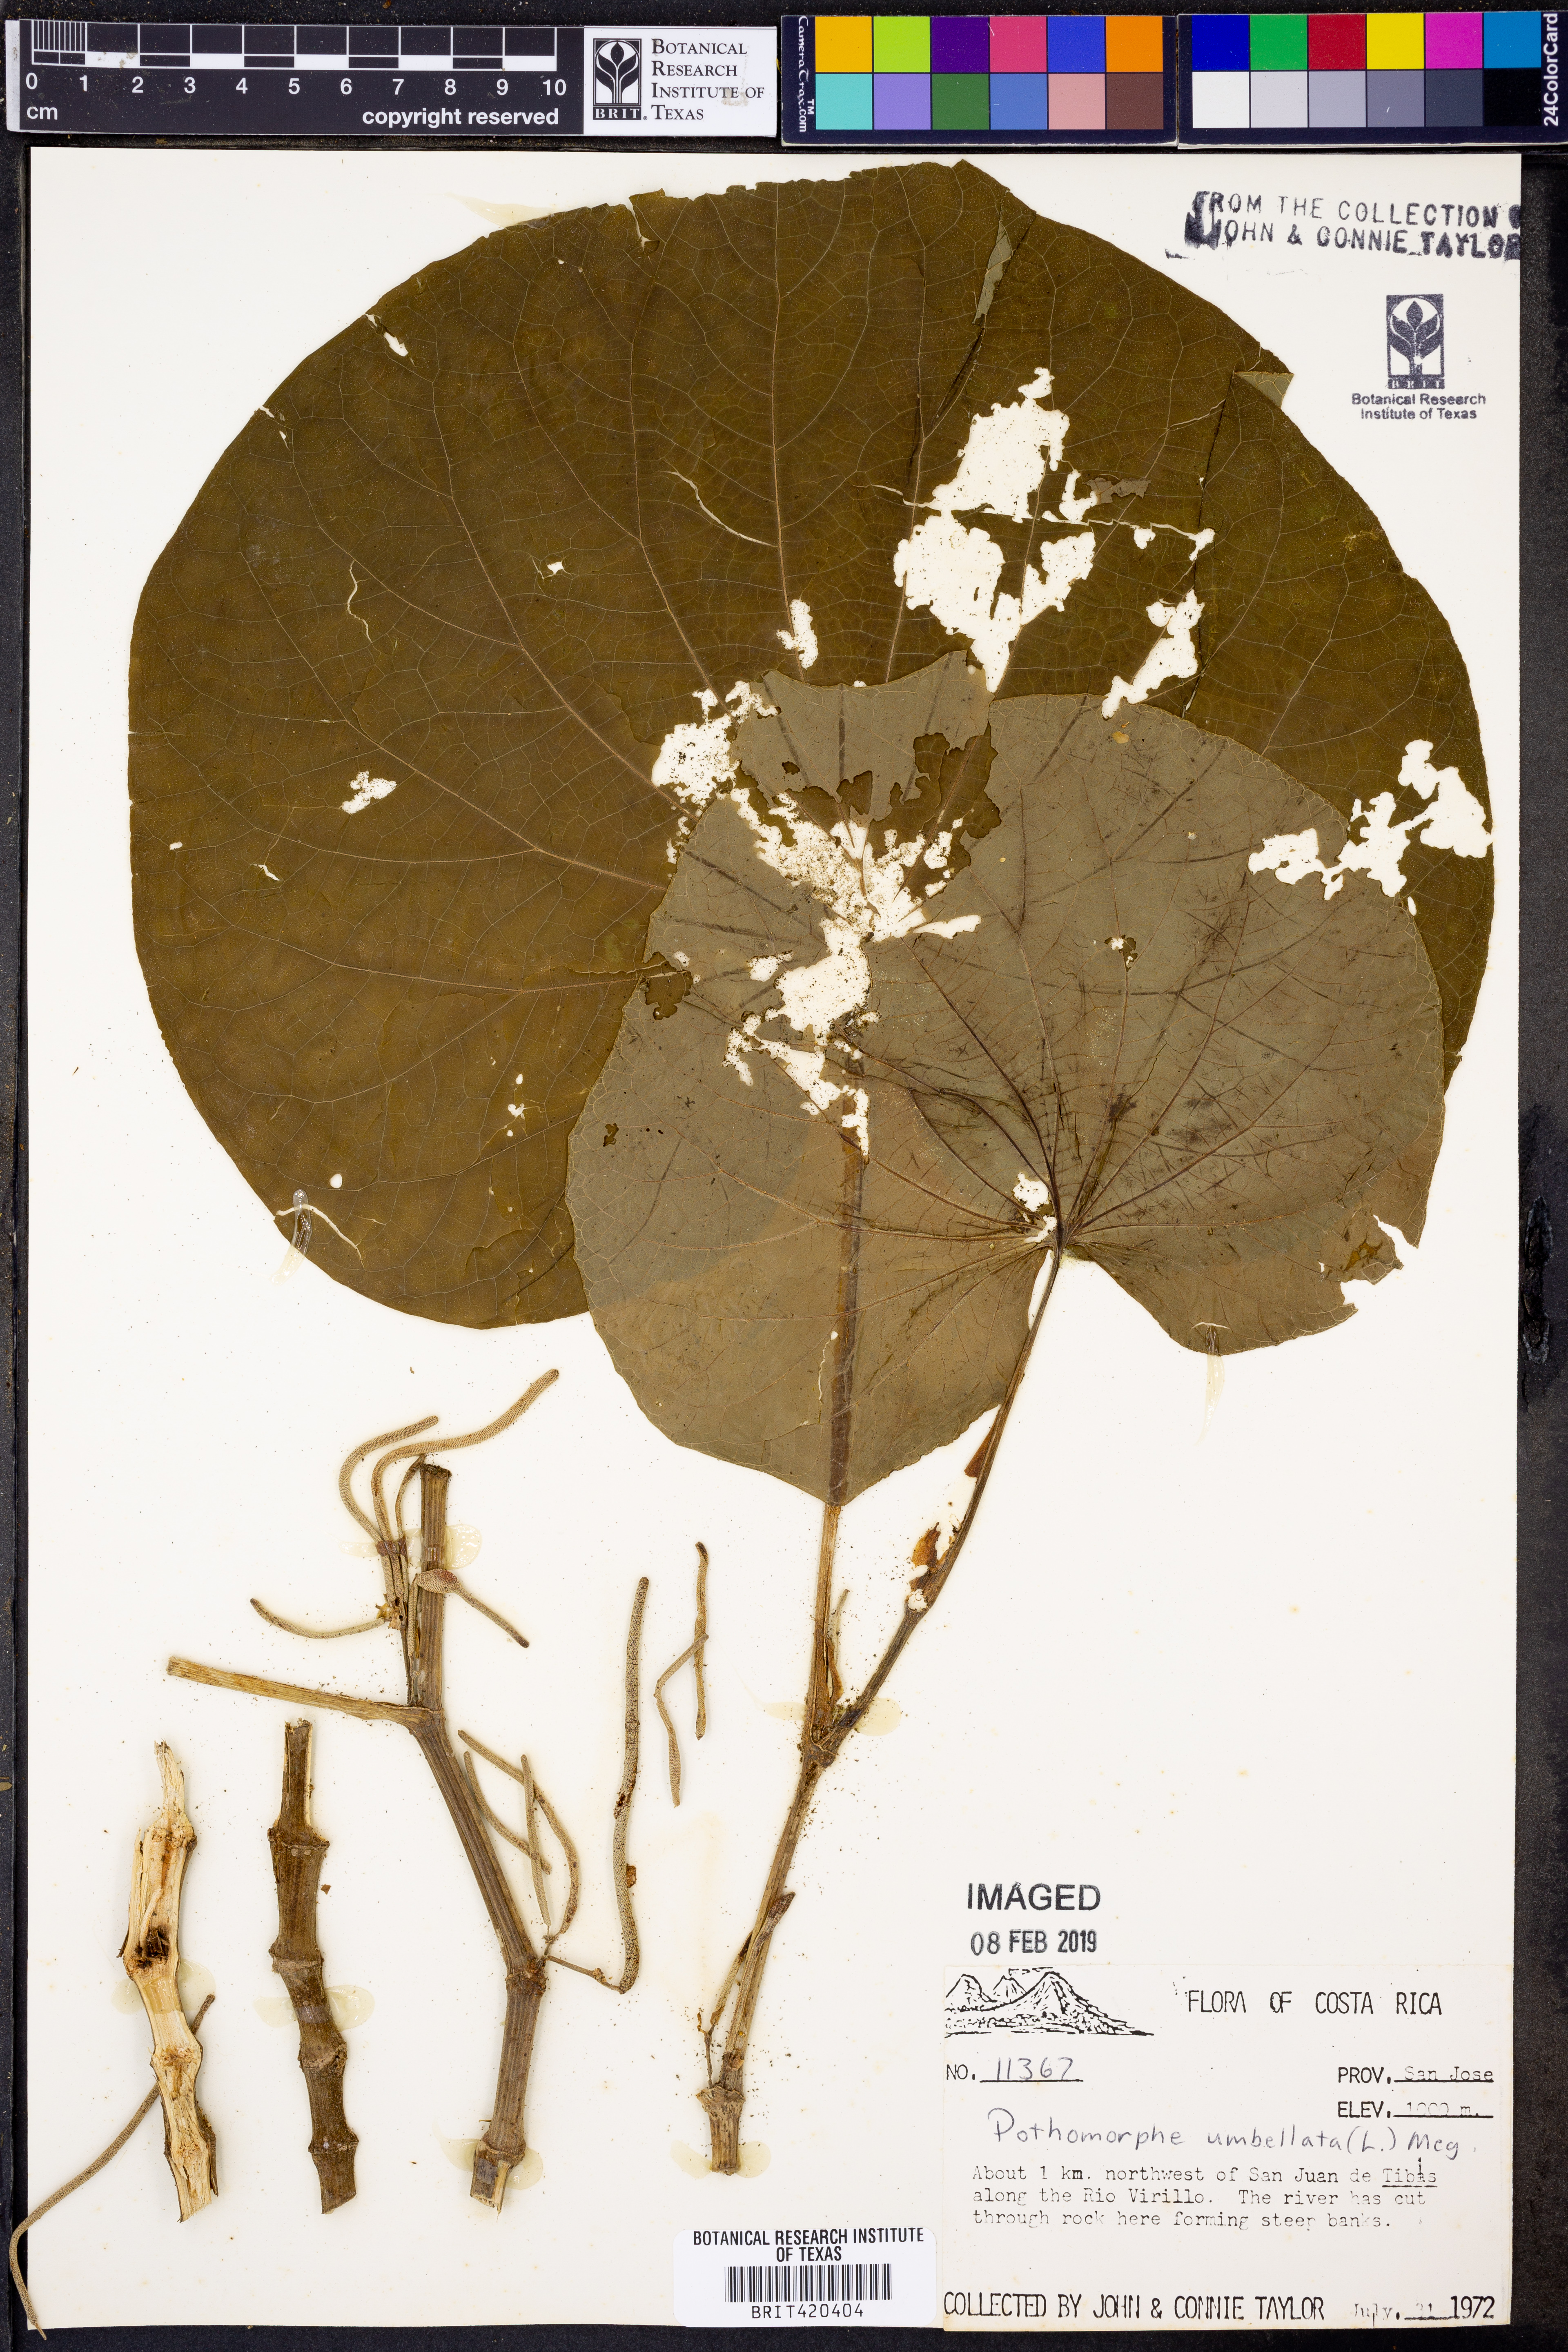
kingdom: Plantae
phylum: Tracheophyta
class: Magnoliopsida
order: Piperales
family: Piperaceae
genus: Piper
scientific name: Piper umbellatum
